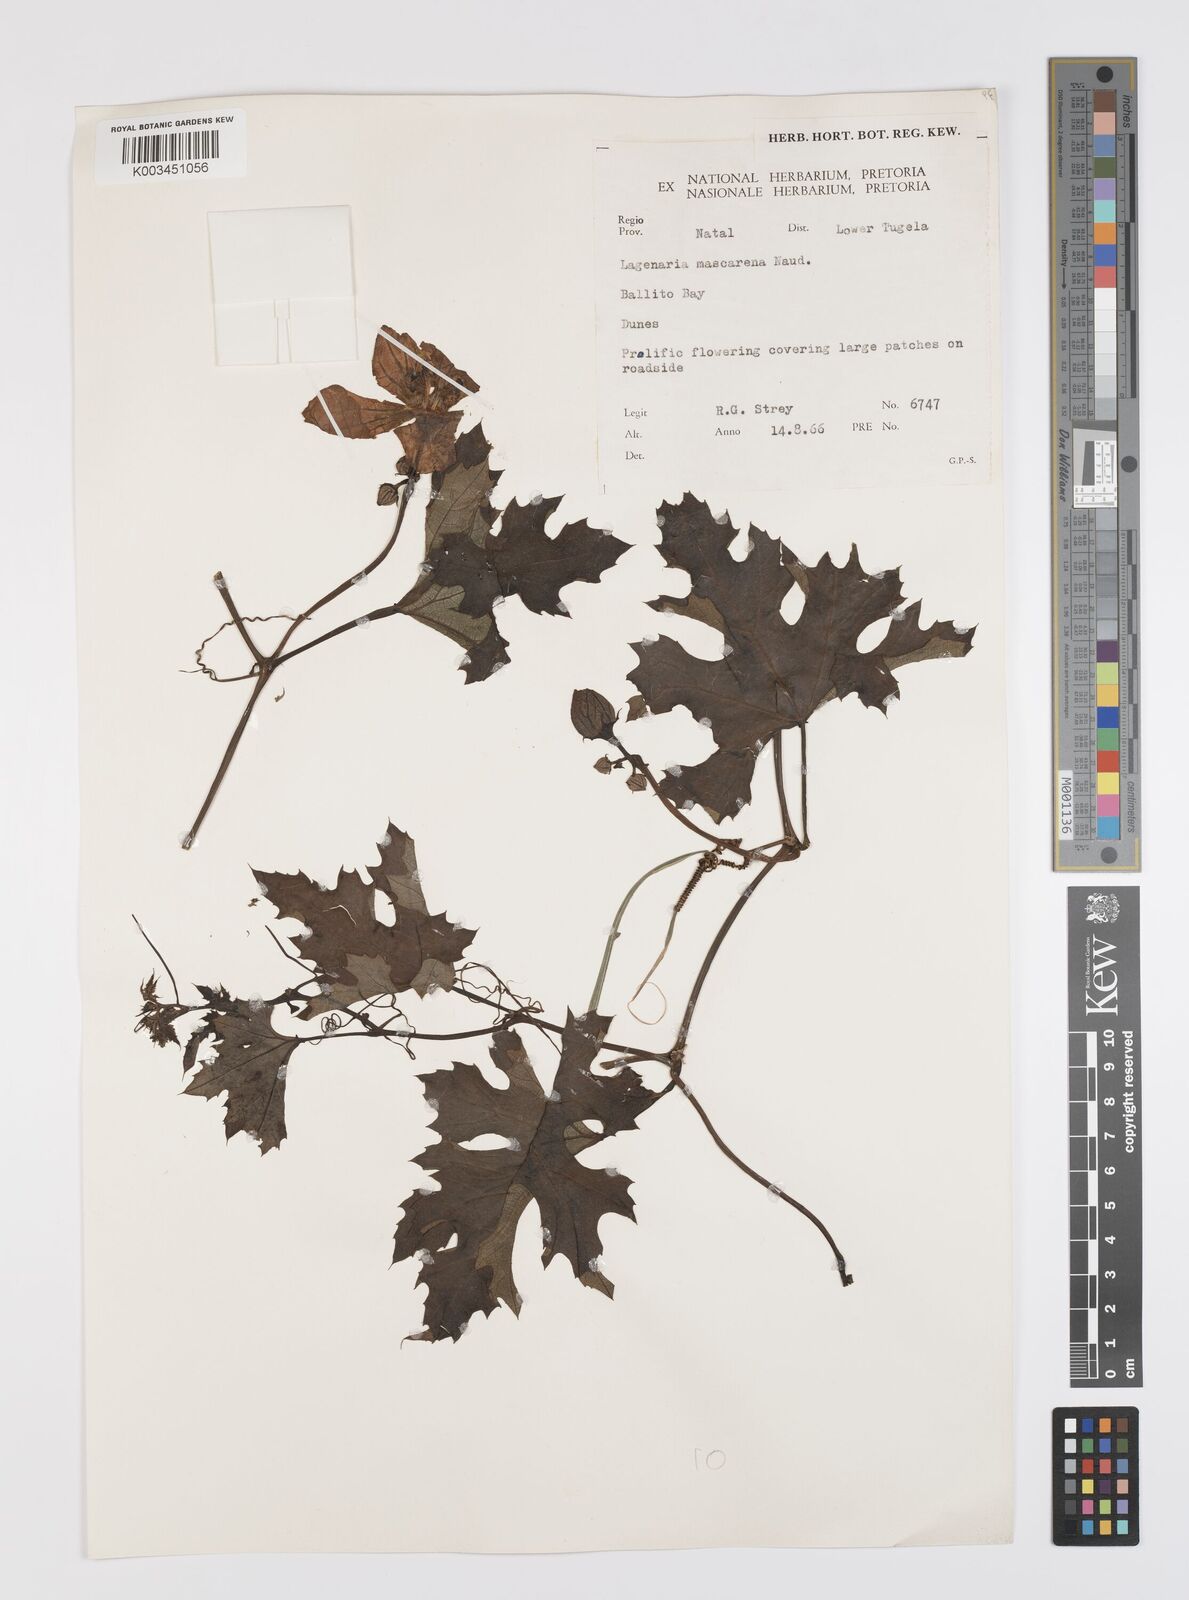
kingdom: Plantae
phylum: Tracheophyta
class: Magnoliopsida
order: Cucurbitales
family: Cucurbitaceae
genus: Lagenaria
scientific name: Lagenaria sphaerica
